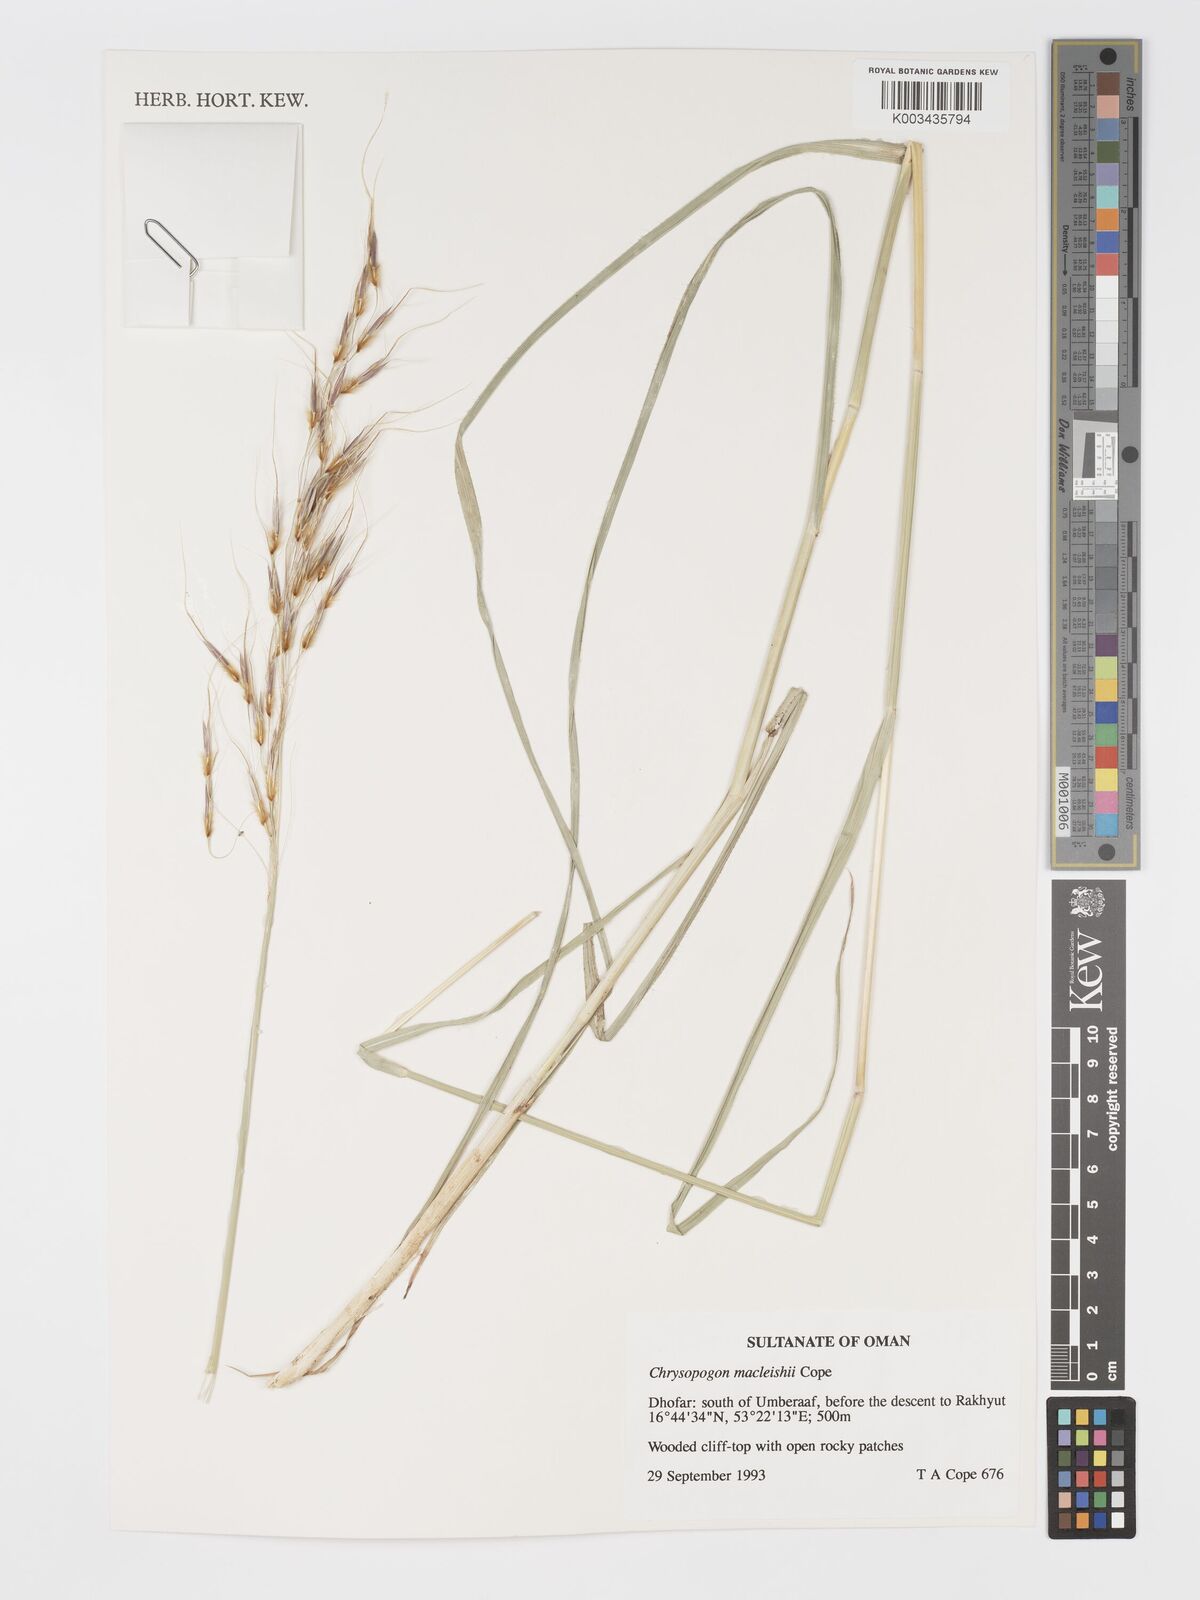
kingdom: Plantae
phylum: Tracheophyta
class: Liliopsida
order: Poales
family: Poaceae
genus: Chrysopogon
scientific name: Chrysopogon macleishii
